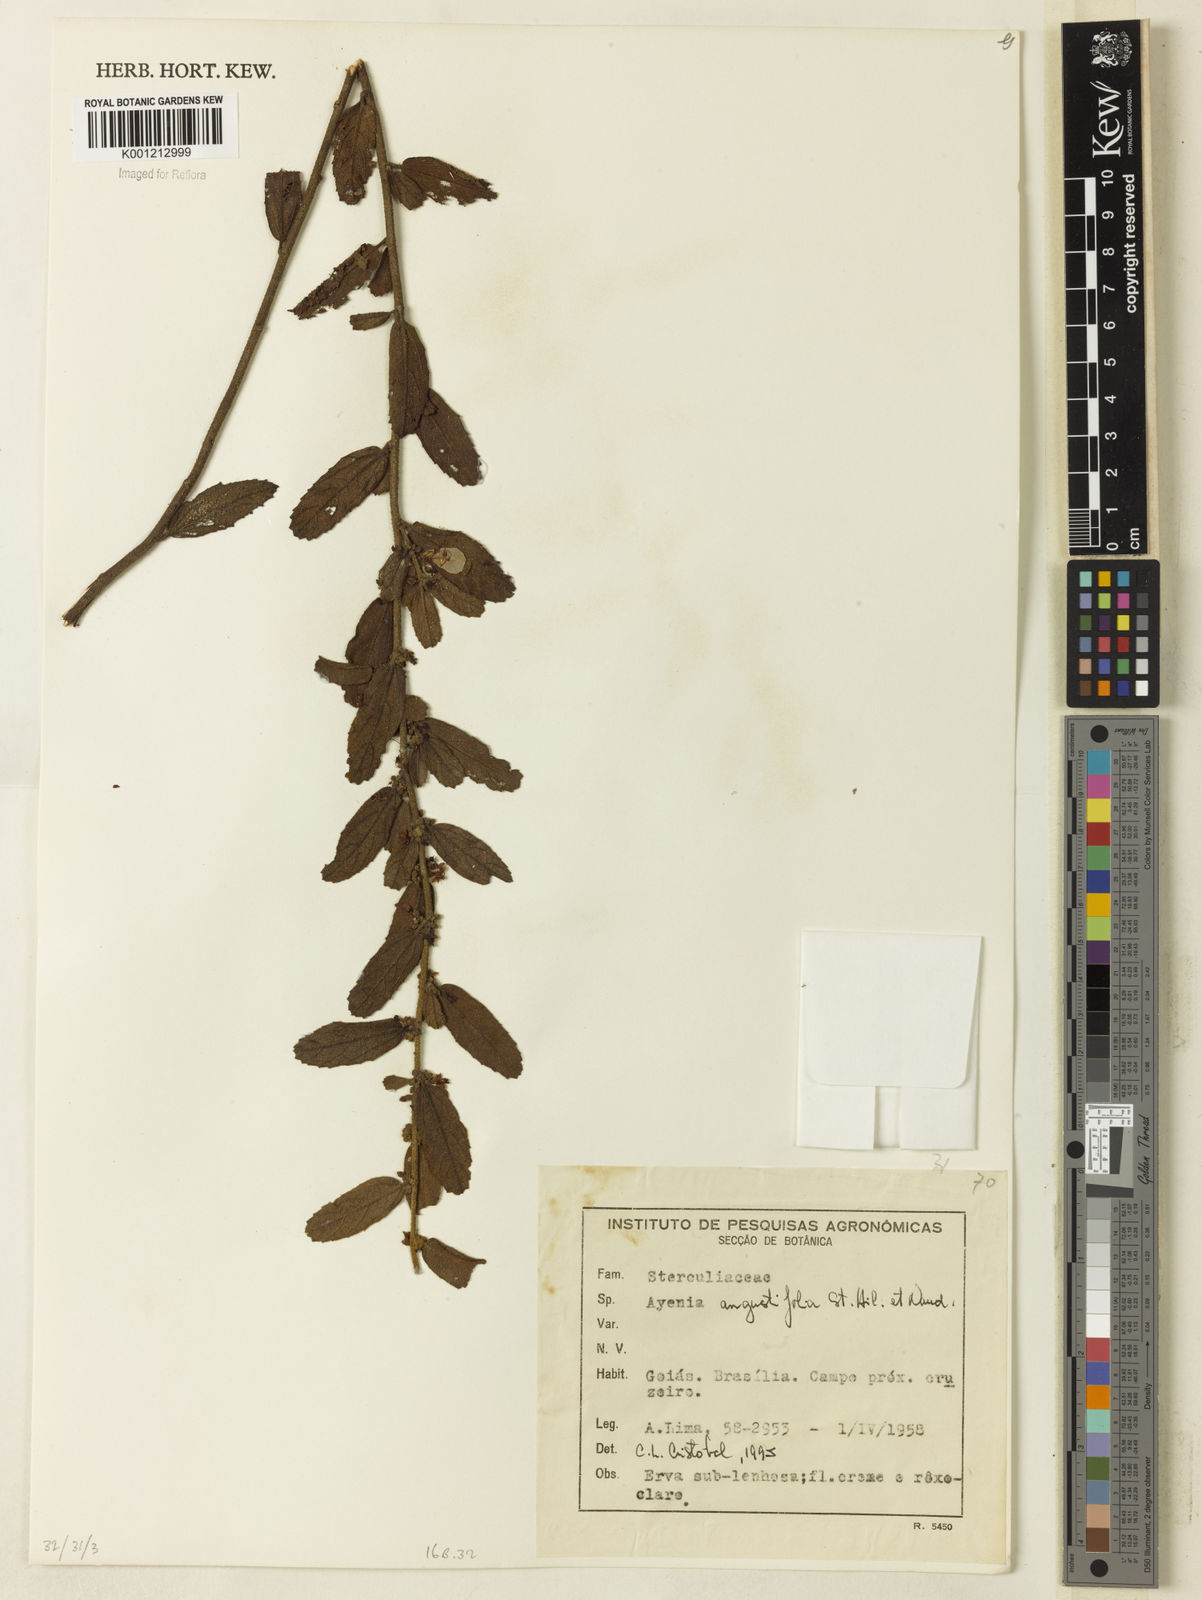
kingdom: Plantae
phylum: Tracheophyta
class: Magnoliopsida
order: Malvales
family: Malvaceae
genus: Ayenia
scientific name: Ayenia angustifolia
